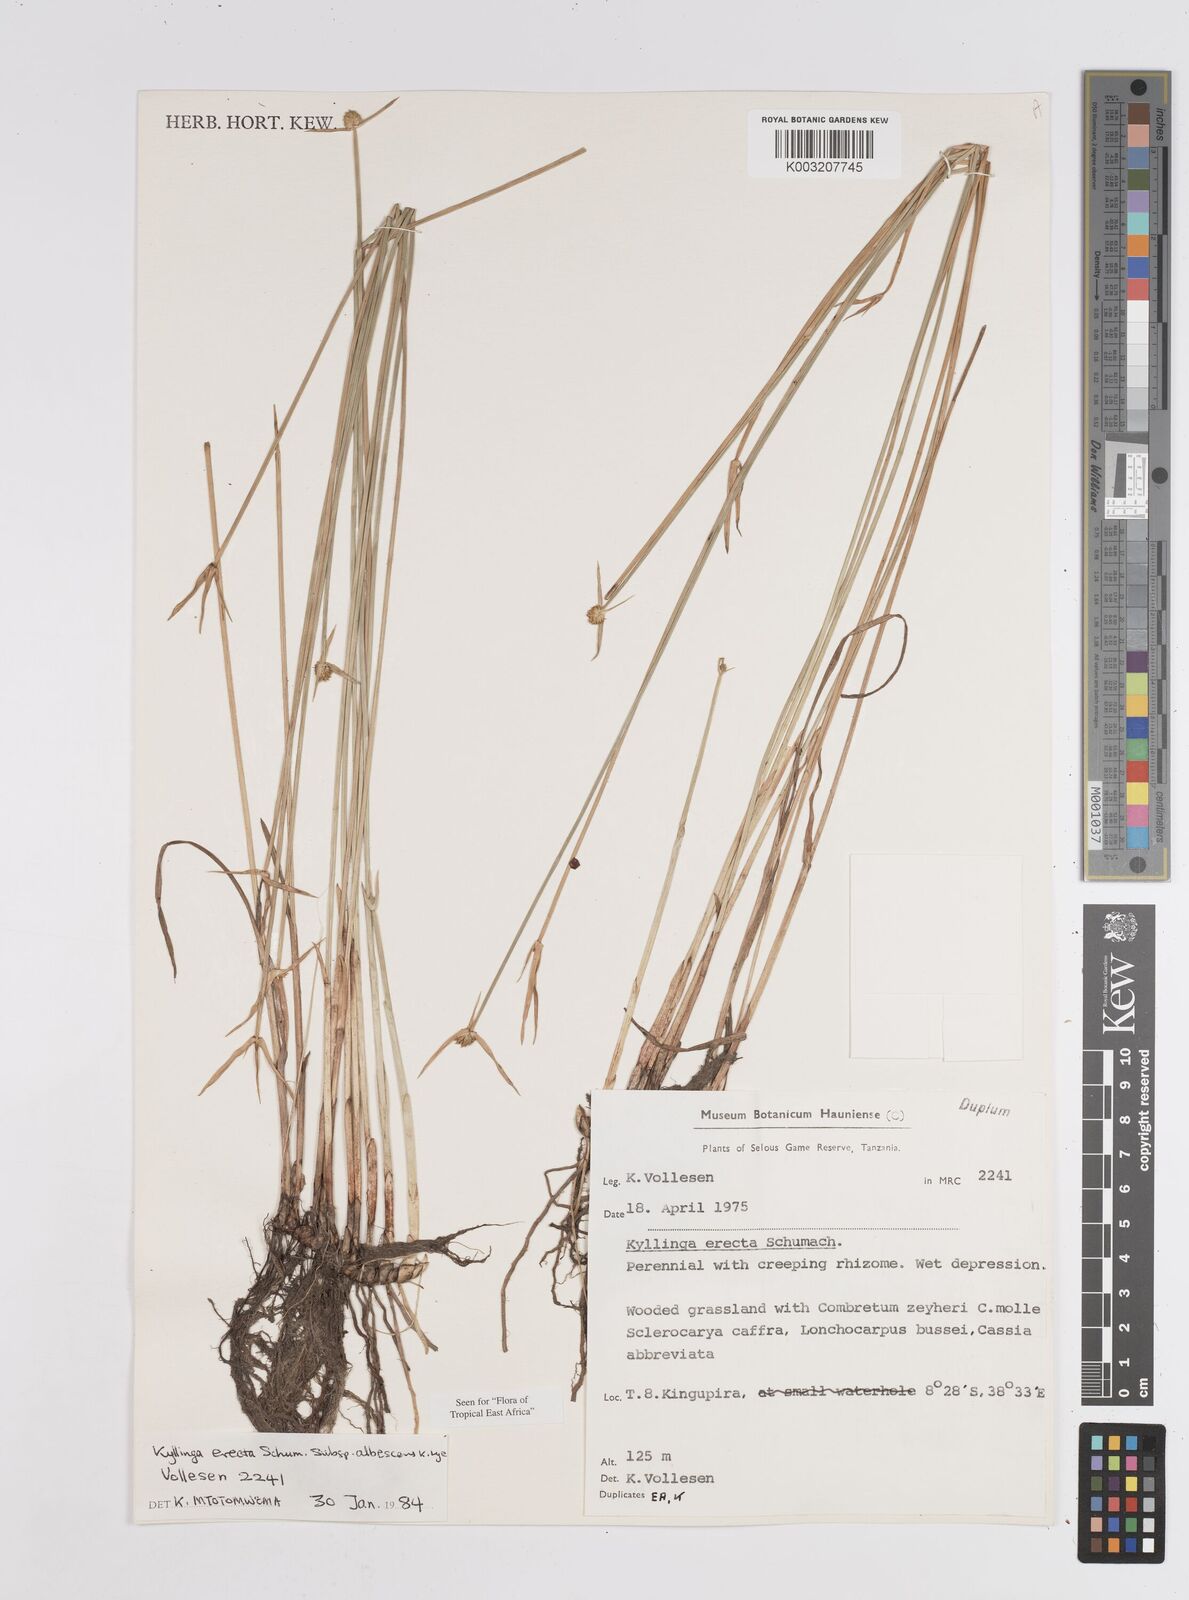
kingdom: Plantae
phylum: Tracheophyta
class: Liliopsida
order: Poales
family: Cyperaceae
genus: Cyperus
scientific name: Cyperus erectus
